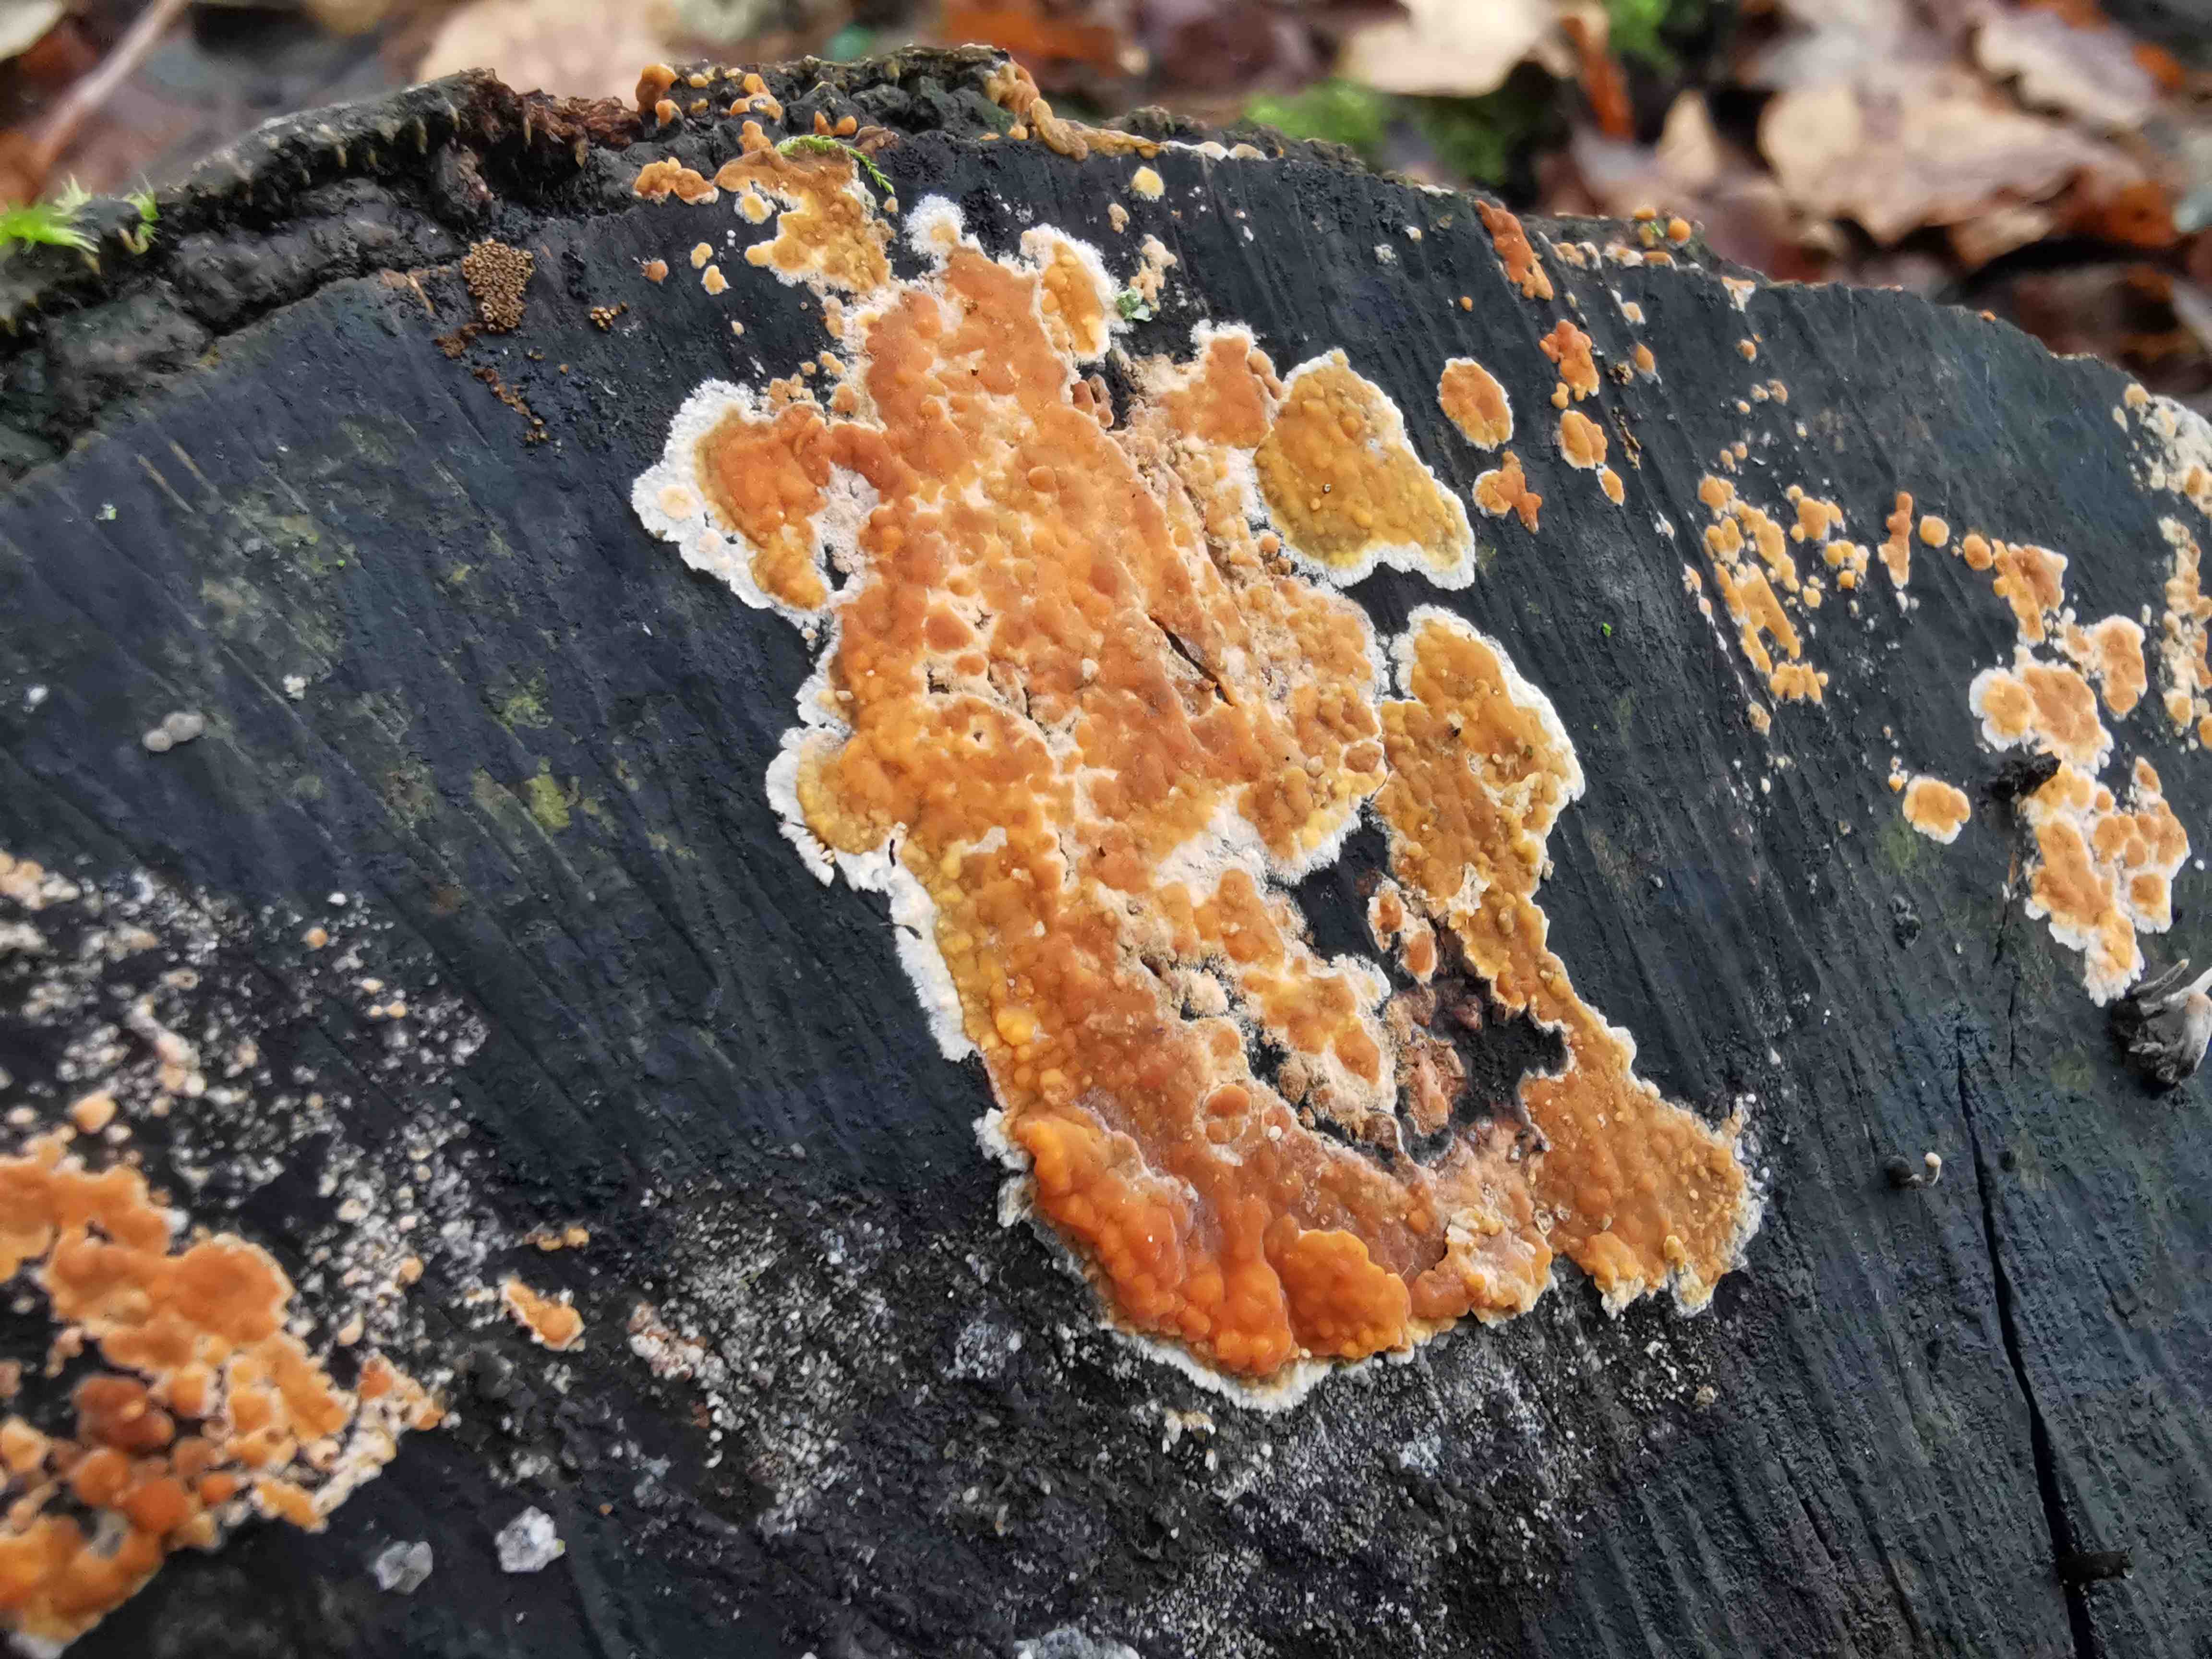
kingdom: Fungi
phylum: Basidiomycota
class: Agaricomycetes
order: Russulales
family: Peniophoraceae
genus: Peniophora
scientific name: Peniophora incarnata
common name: laksefarvet voksskind
